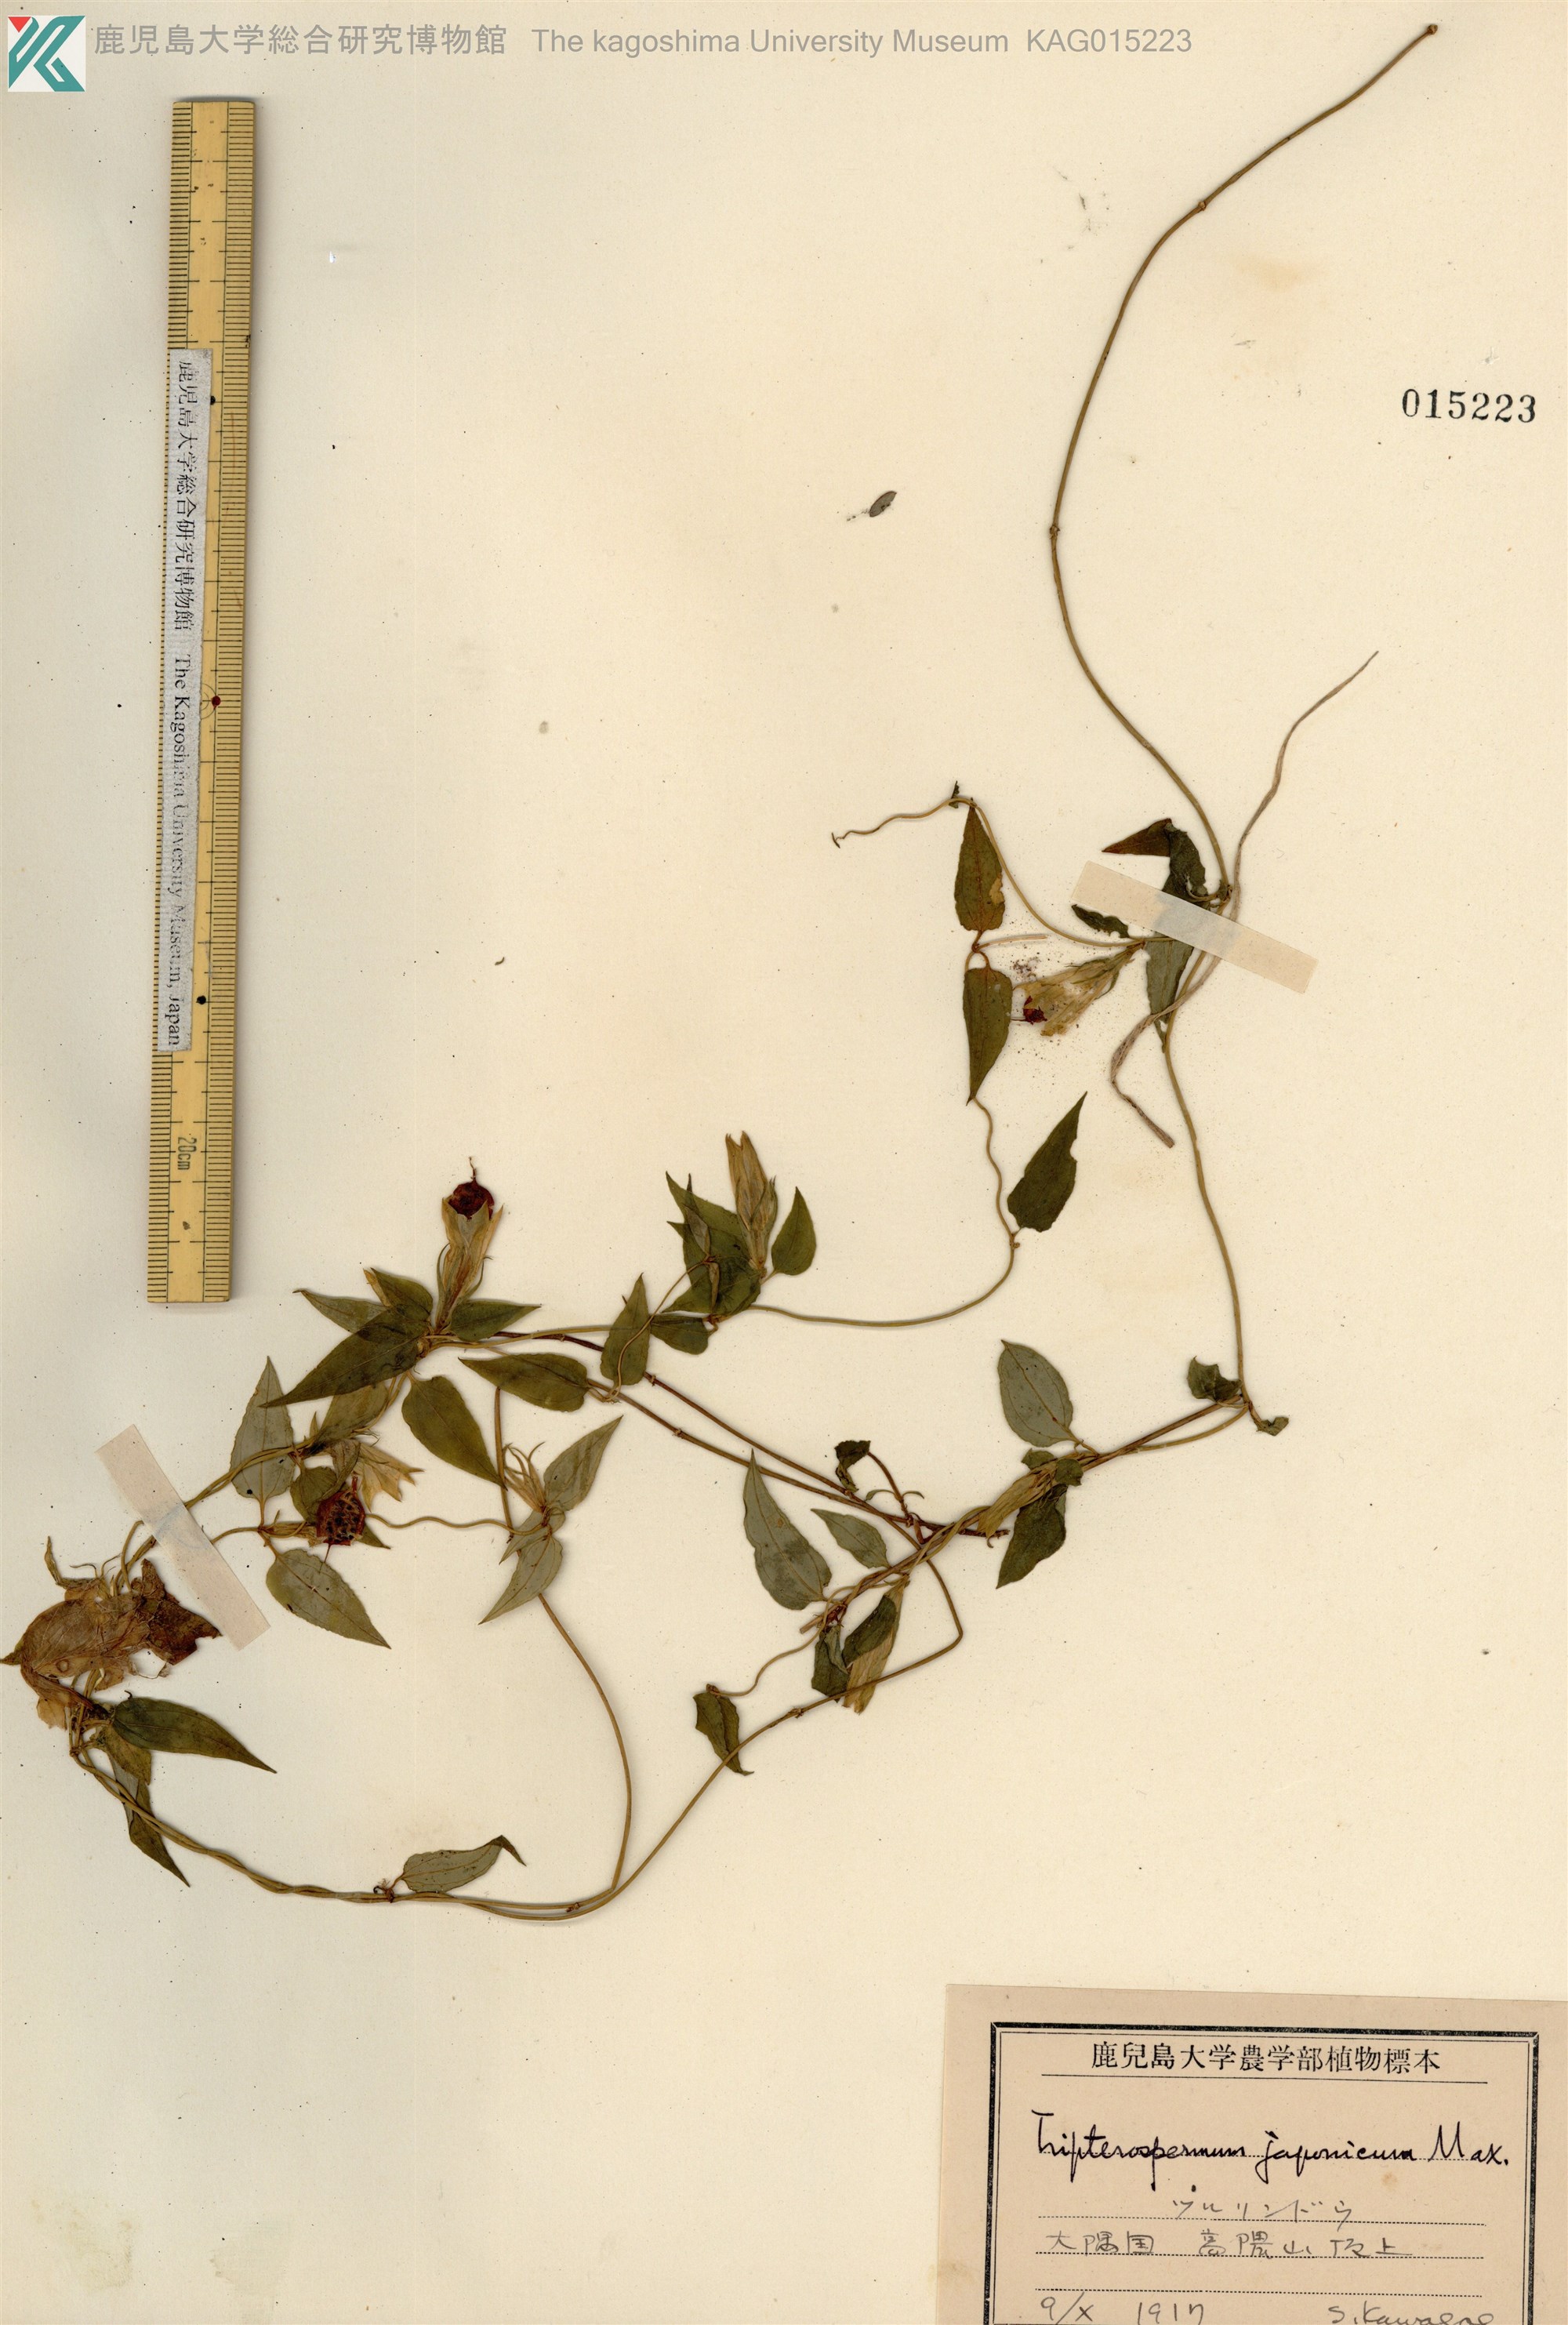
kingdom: Plantae
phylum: Tracheophyta
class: Magnoliopsida
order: Gentianales
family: Gentianaceae
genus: Tripterospermum
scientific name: Tripterospermum trinervium
